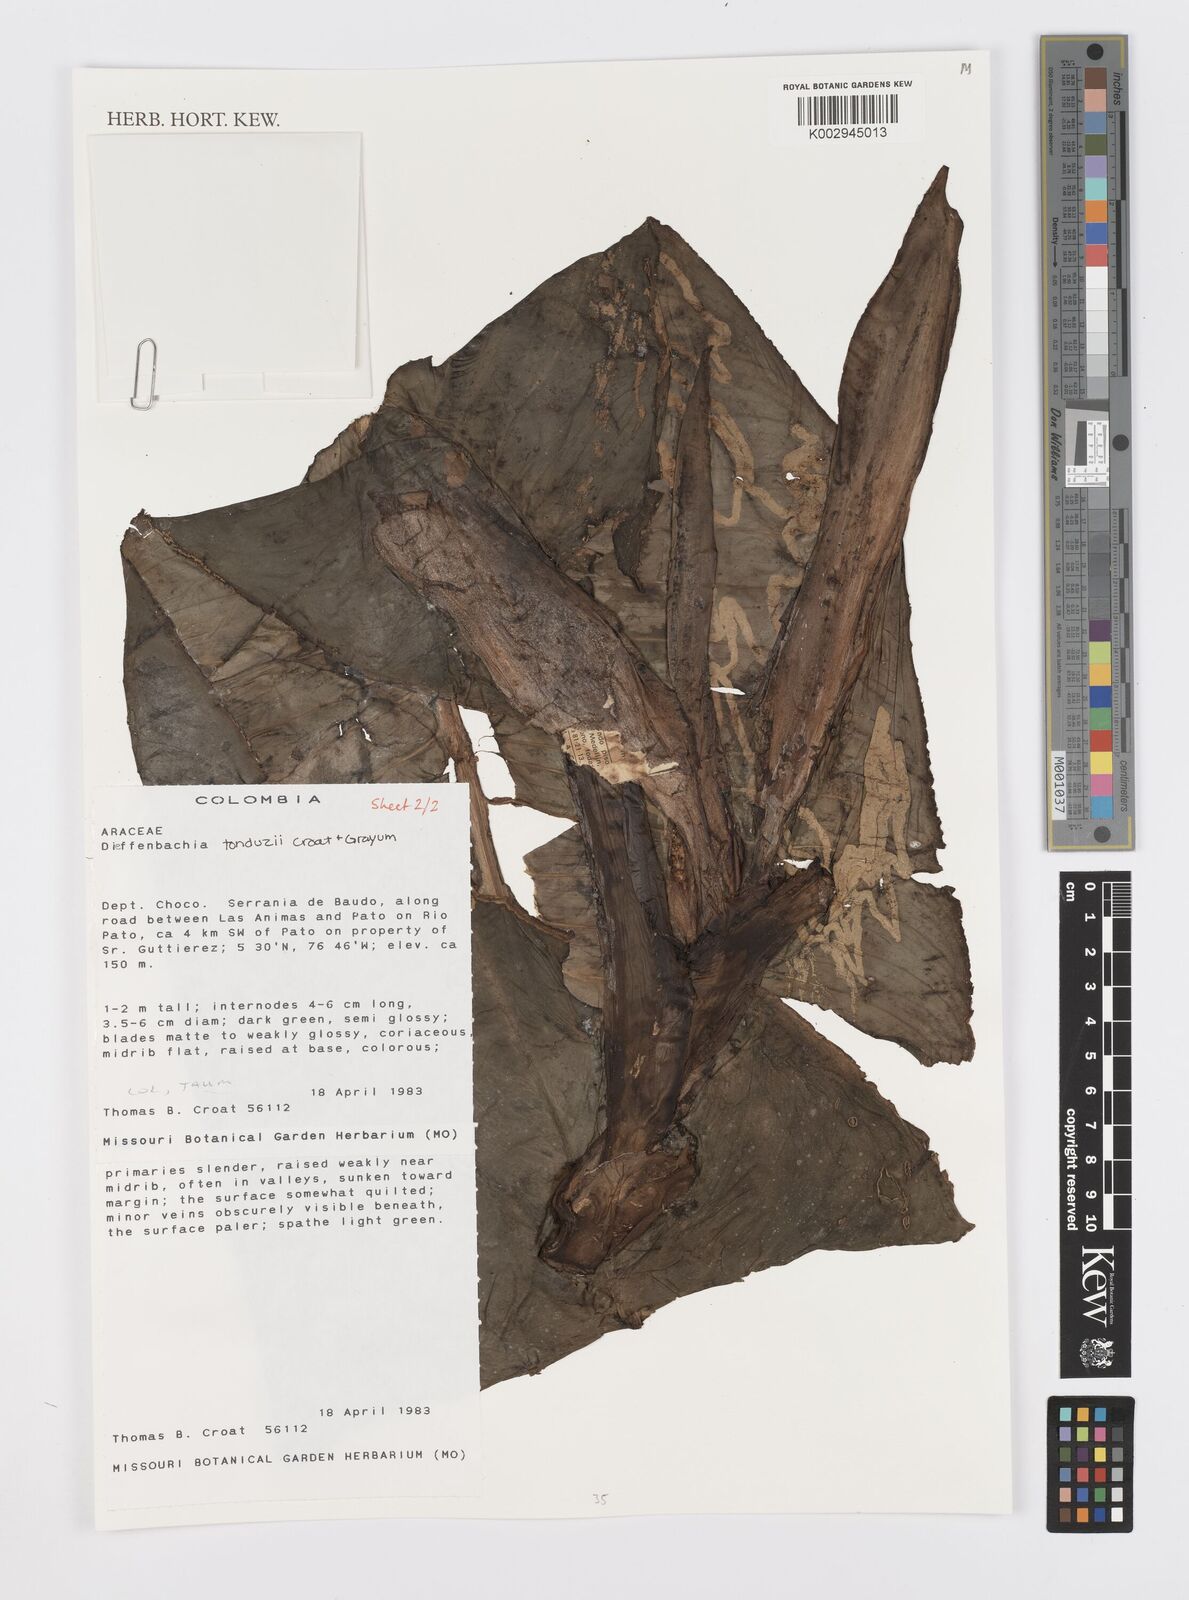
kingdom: Plantae
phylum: Tracheophyta
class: Liliopsida
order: Alismatales
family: Araceae
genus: Dieffenbachia
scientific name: Dieffenbachia tonduzii
